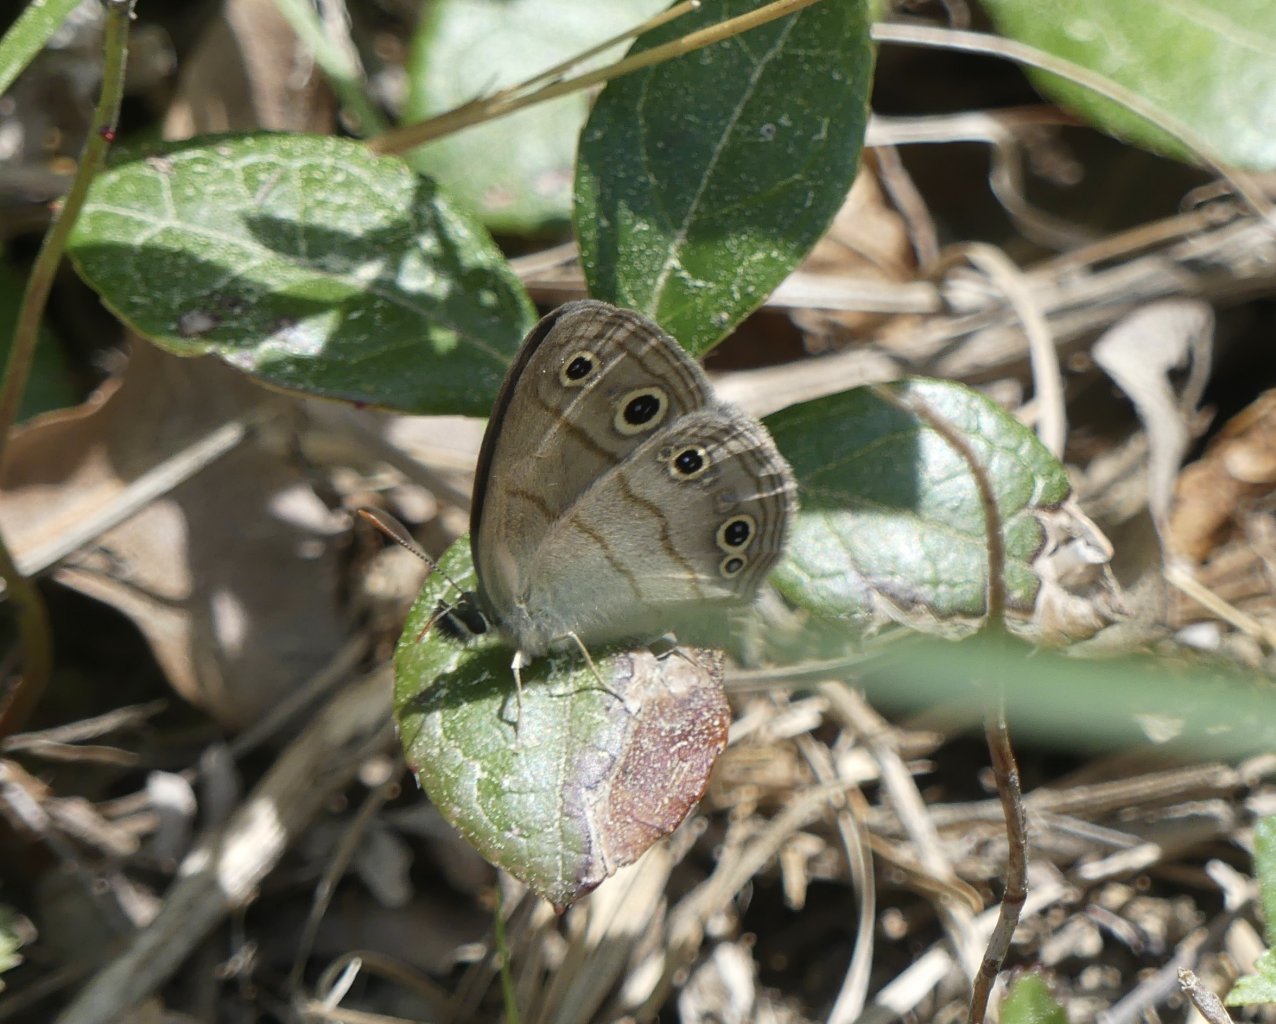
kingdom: Animalia
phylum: Arthropoda
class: Insecta
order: Lepidoptera
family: Nymphalidae
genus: Euptychia
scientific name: Euptychia cymela
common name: Little Wood Satyr
